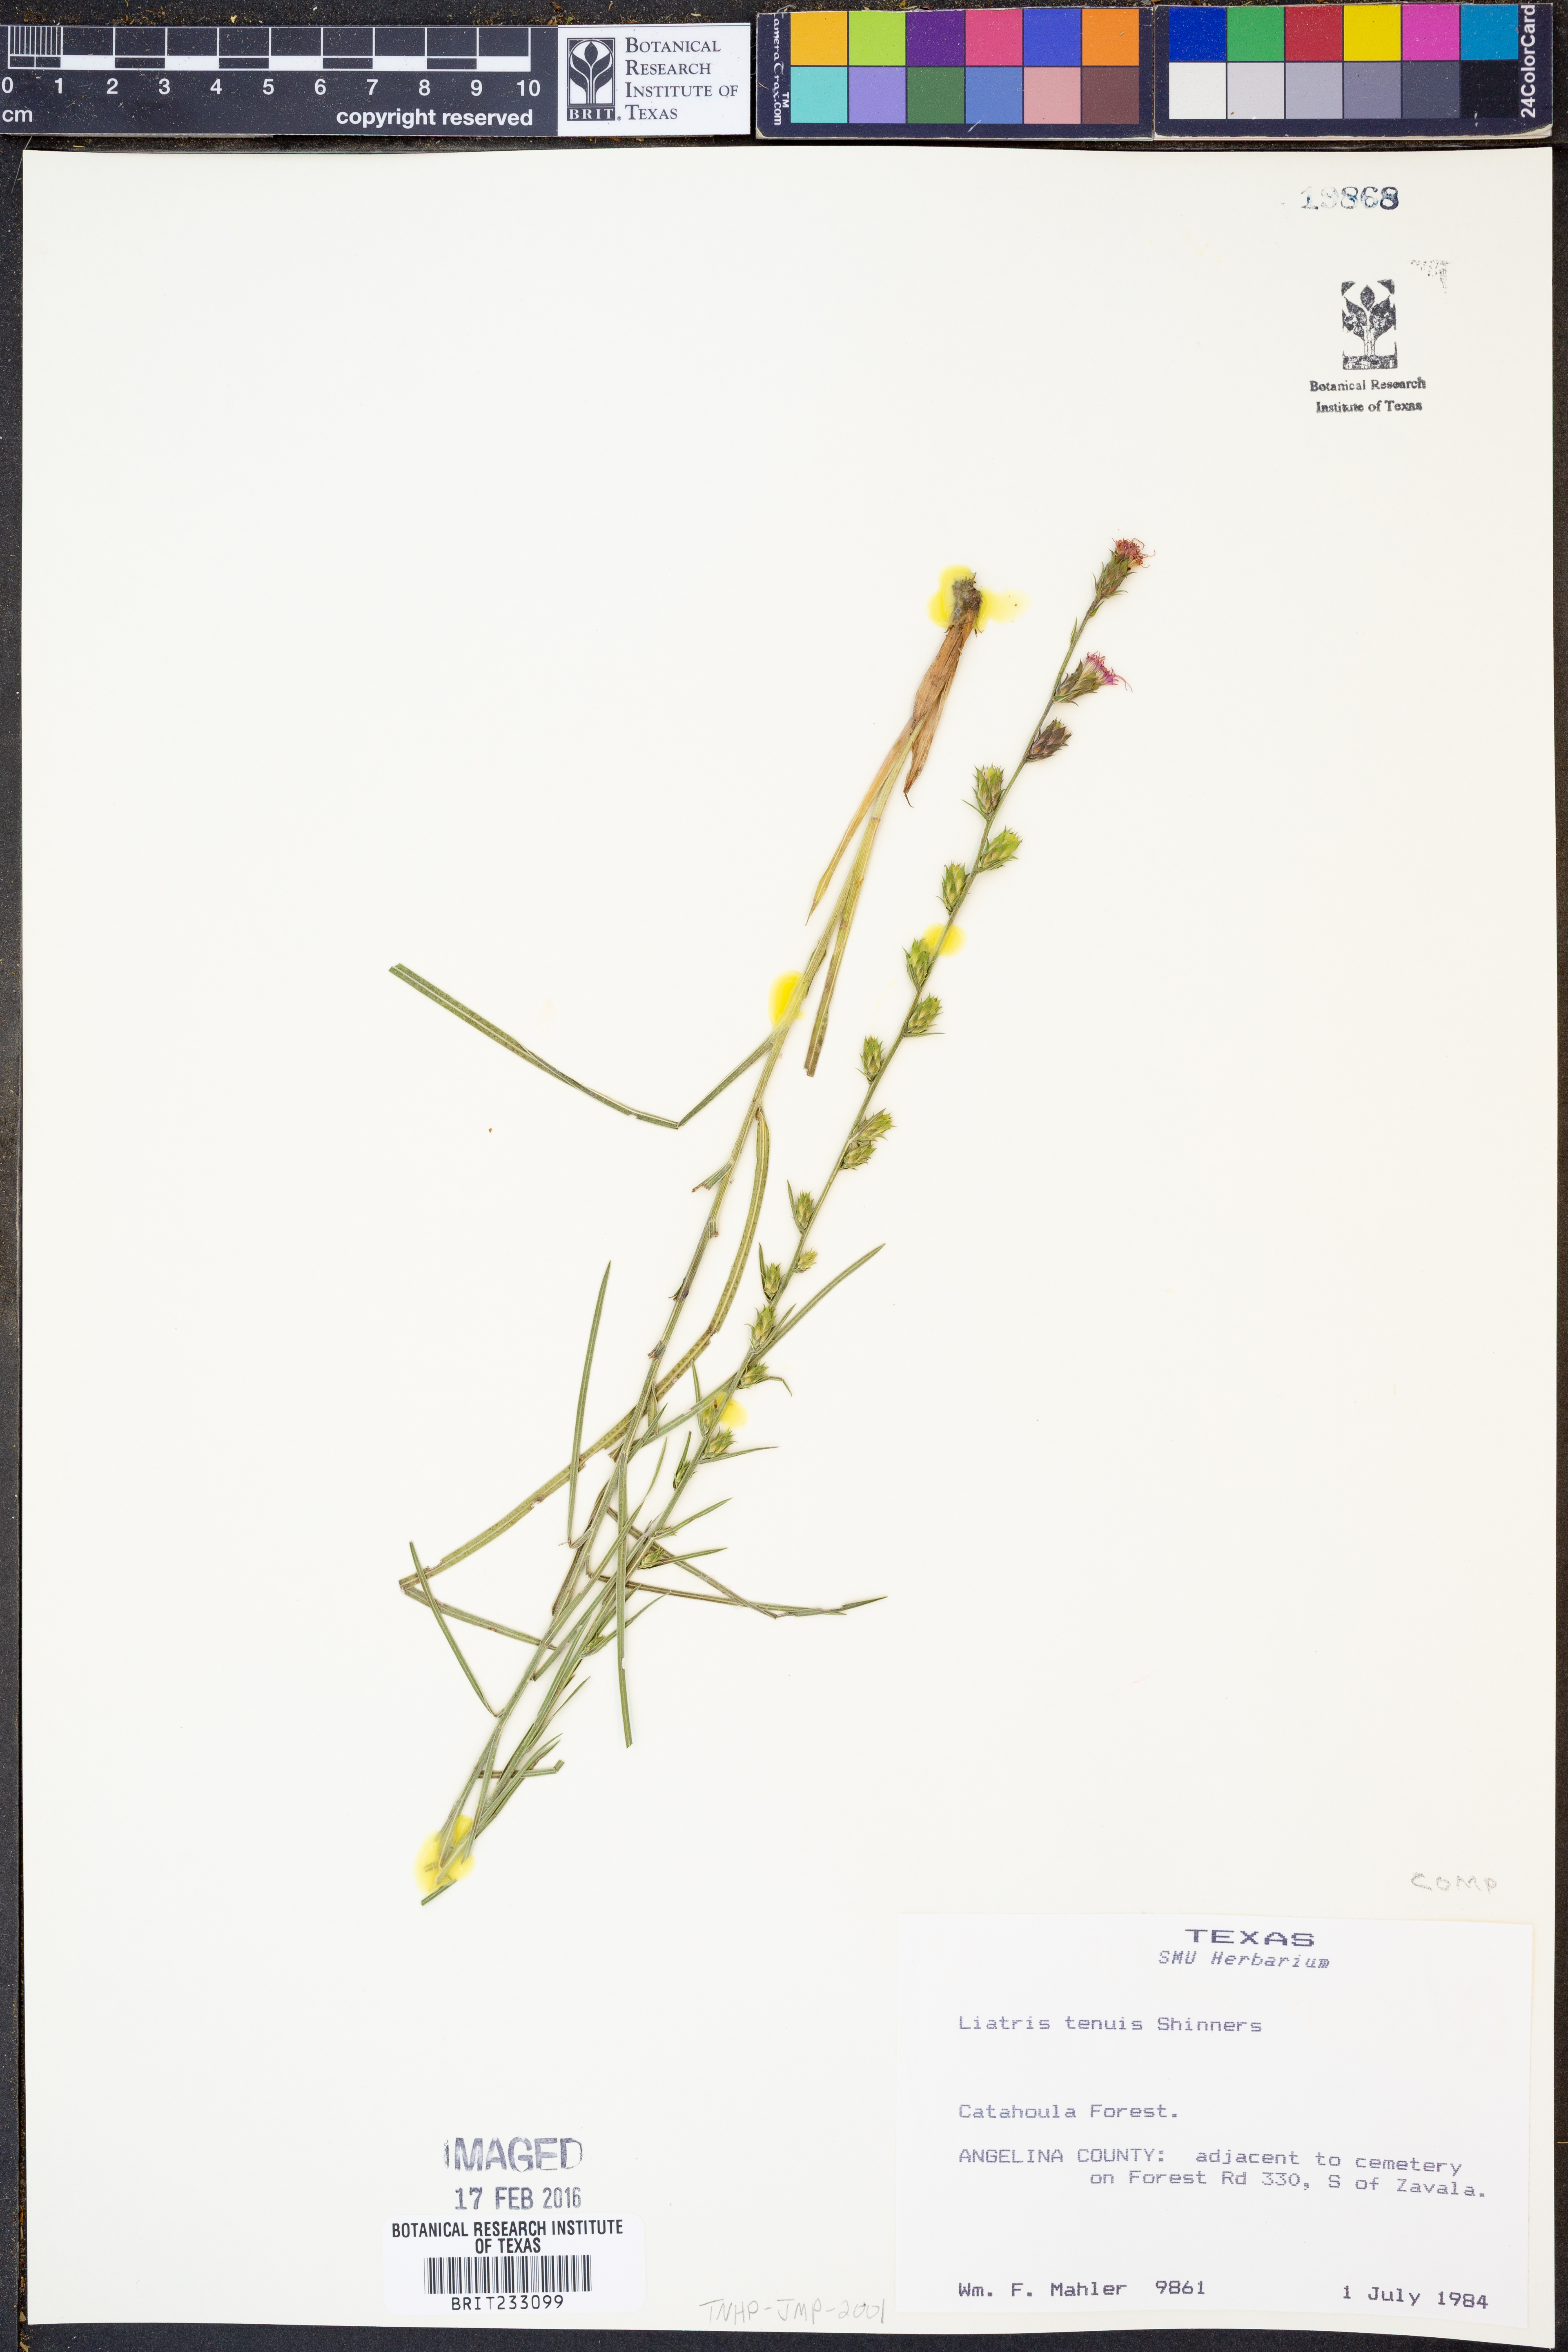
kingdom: Plantae
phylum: Tracheophyta
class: Magnoliopsida
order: Asterales
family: Asteraceae
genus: Liatris
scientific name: Liatris tenuis
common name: Shinner's gayfeather
